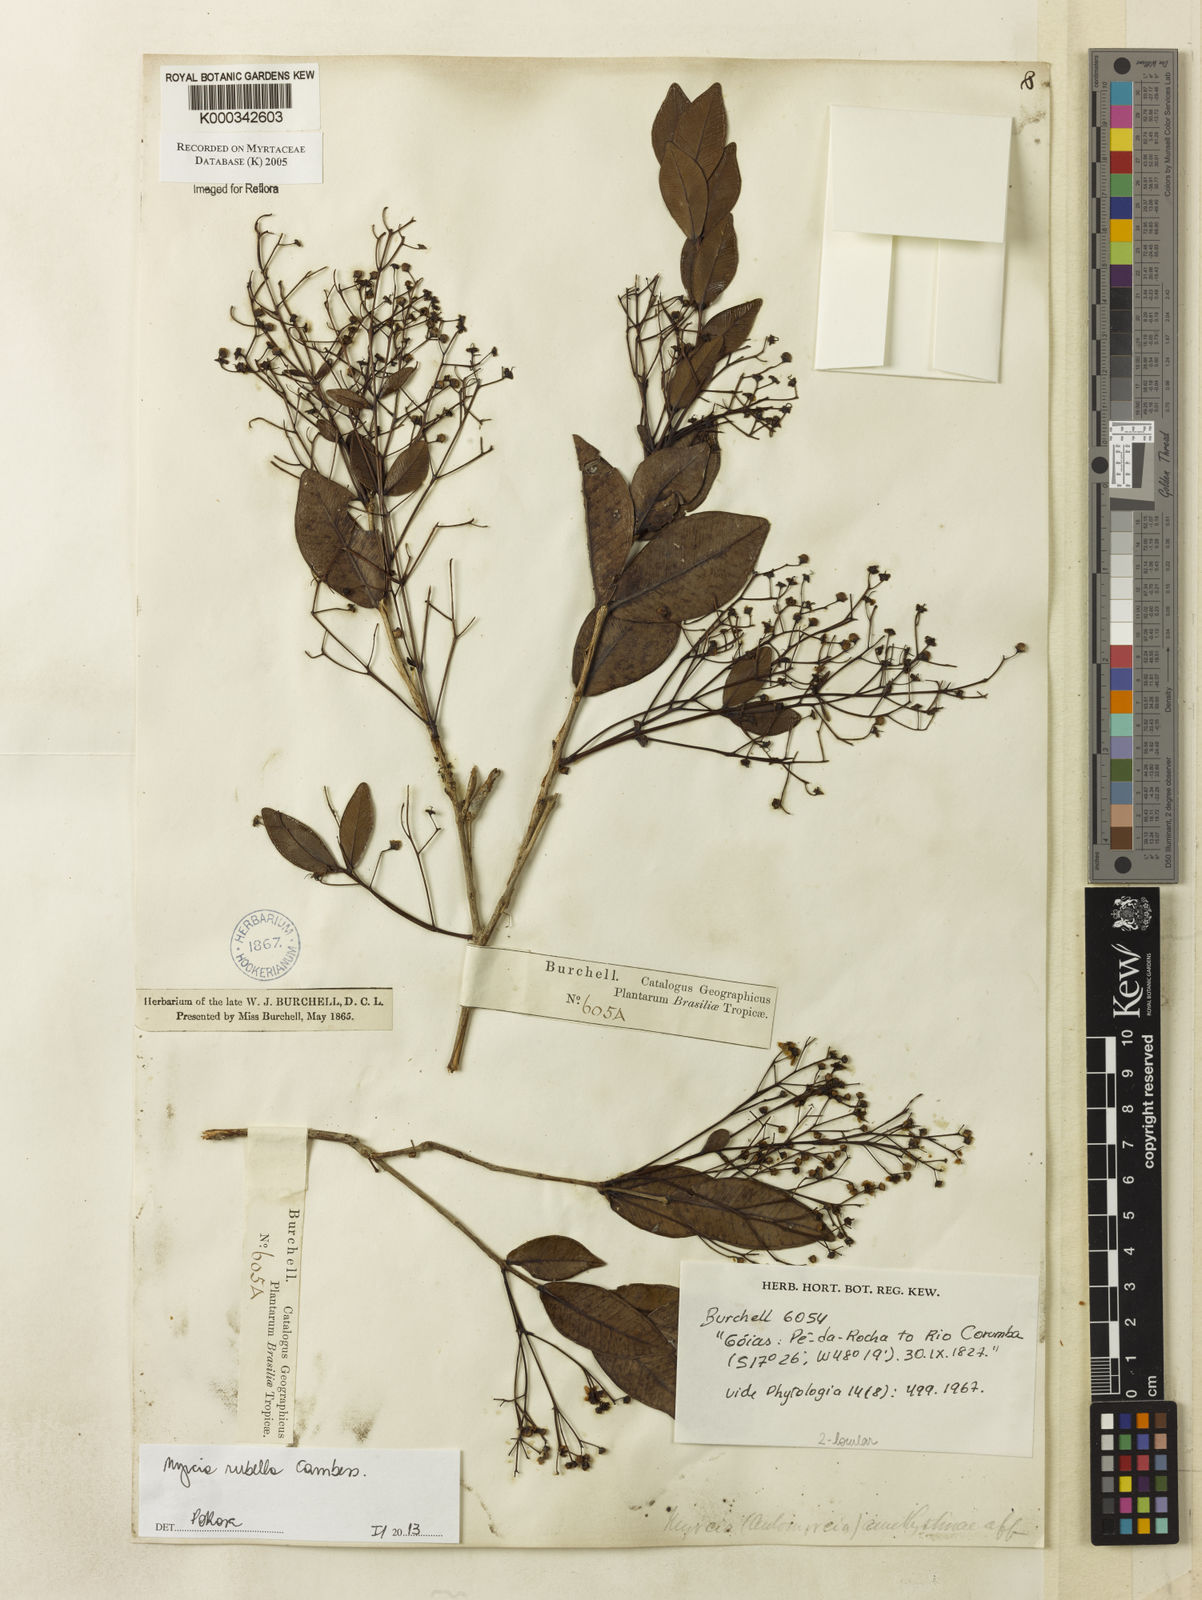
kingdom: Plantae
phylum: Tracheophyta
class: Magnoliopsida
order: Myrtales
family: Myrtaceae
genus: Myrcia
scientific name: Myrcia amethystina
